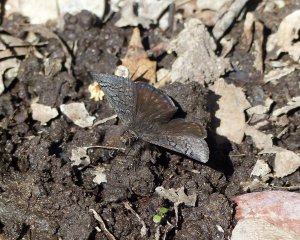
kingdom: Animalia
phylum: Arthropoda
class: Insecta
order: Lepidoptera
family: Hesperiidae
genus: Erynnis
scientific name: Erynnis brizo
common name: Sleepy Duskywing
